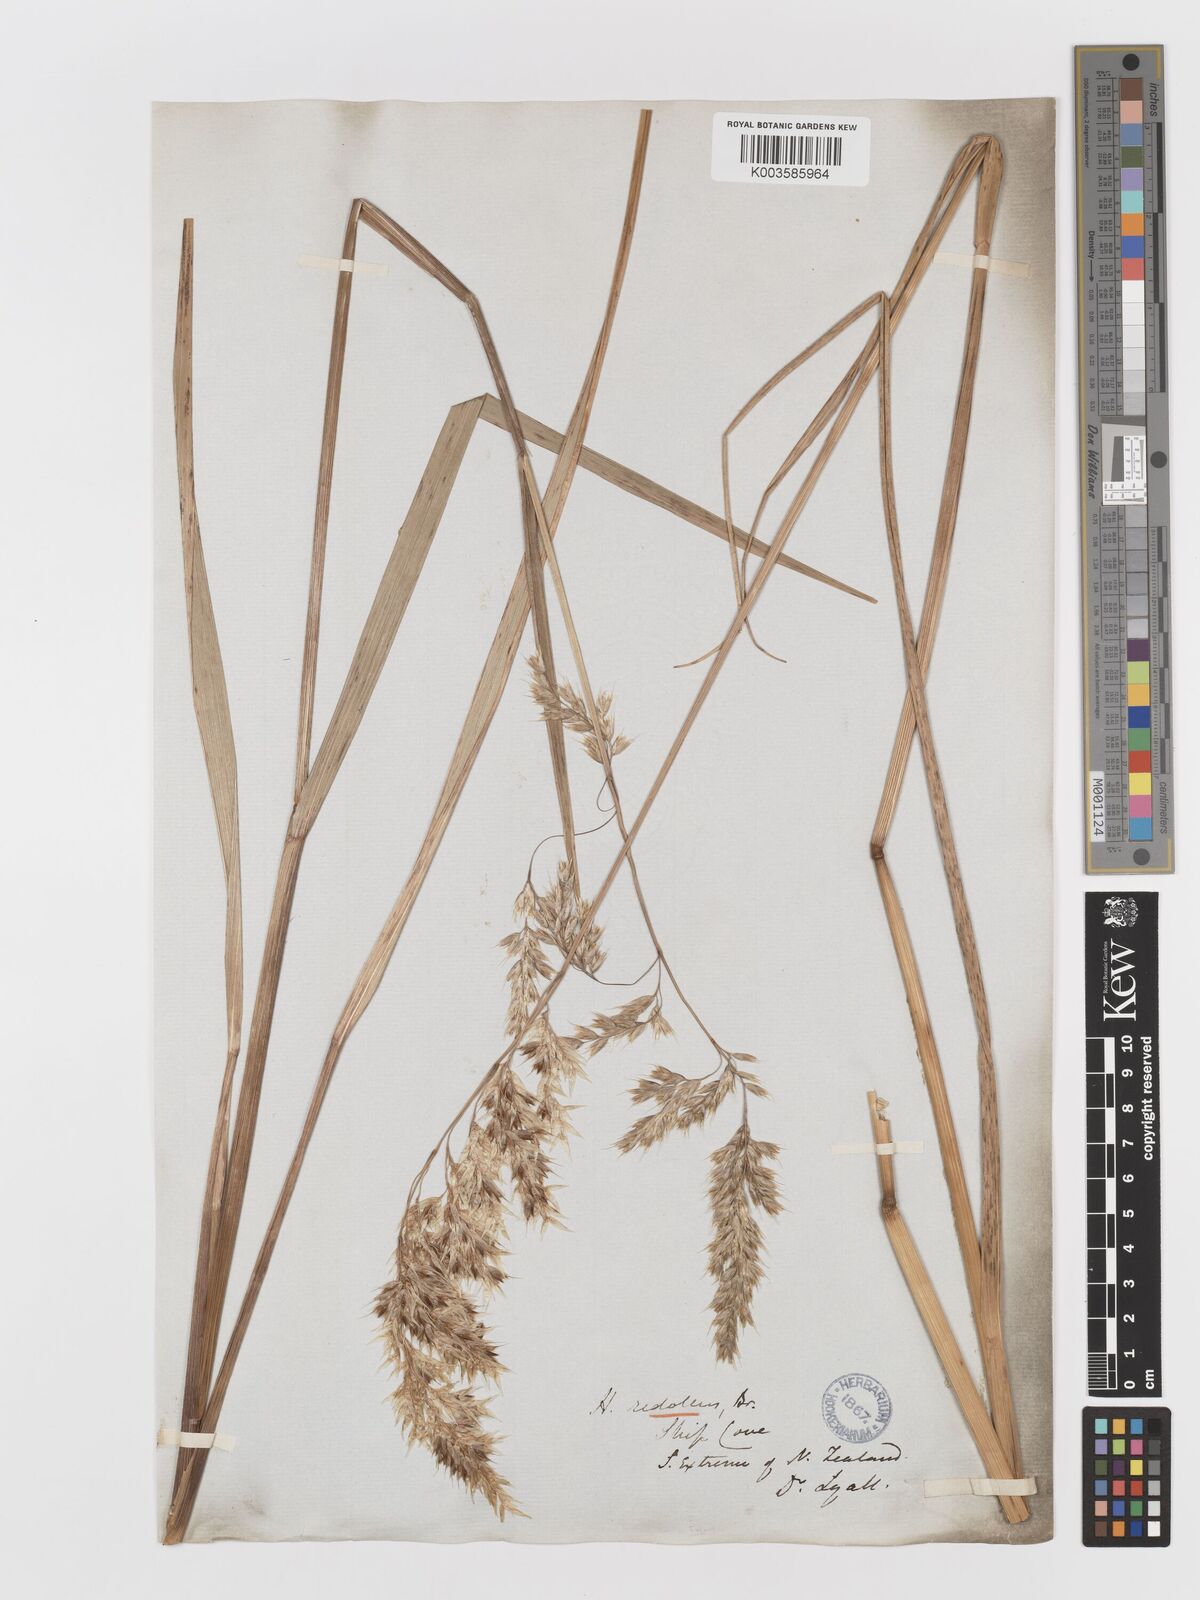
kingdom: Plantae
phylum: Tracheophyta
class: Liliopsida
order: Poales
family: Poaceae
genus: Anthoxanthum
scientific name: Anthoxanthum redolens
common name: Sweet holy grass
